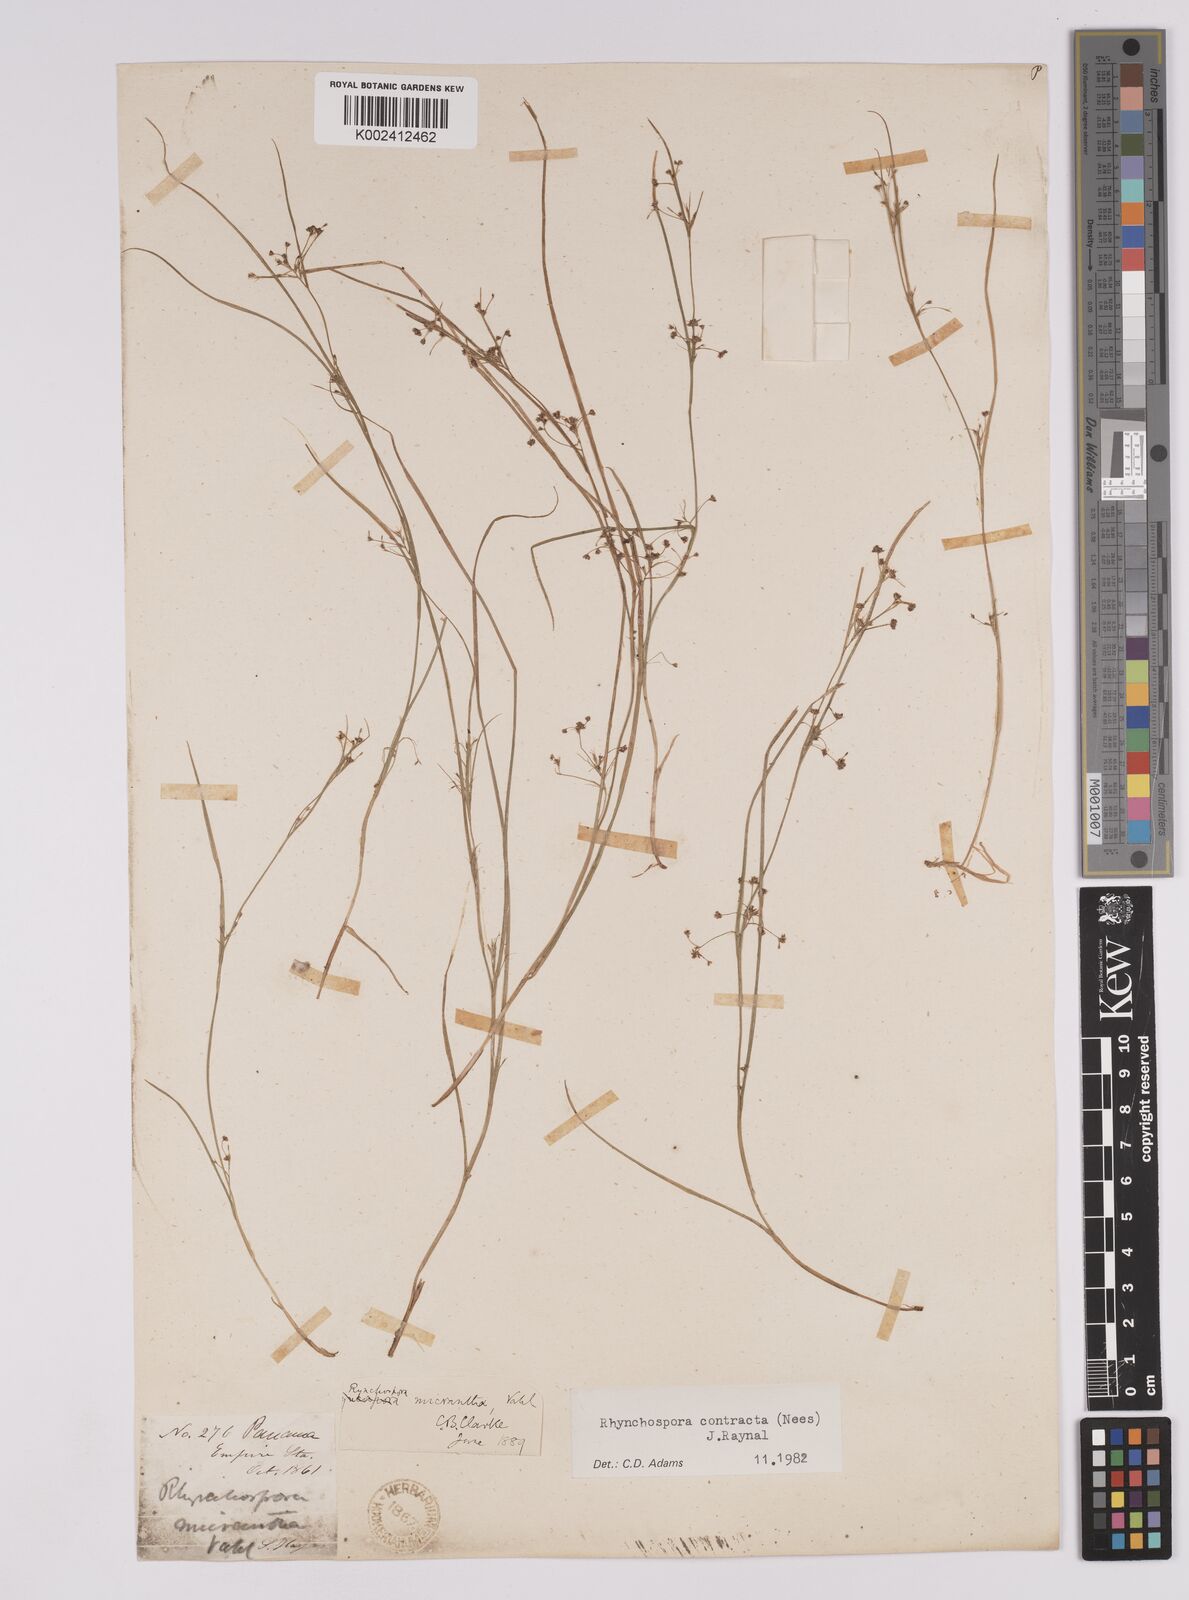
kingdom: Plantae
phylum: Tracheophyta
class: Liliopsida
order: Poales
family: Cyperaceae
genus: Rhynchospora
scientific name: Rhynchospora contracta
